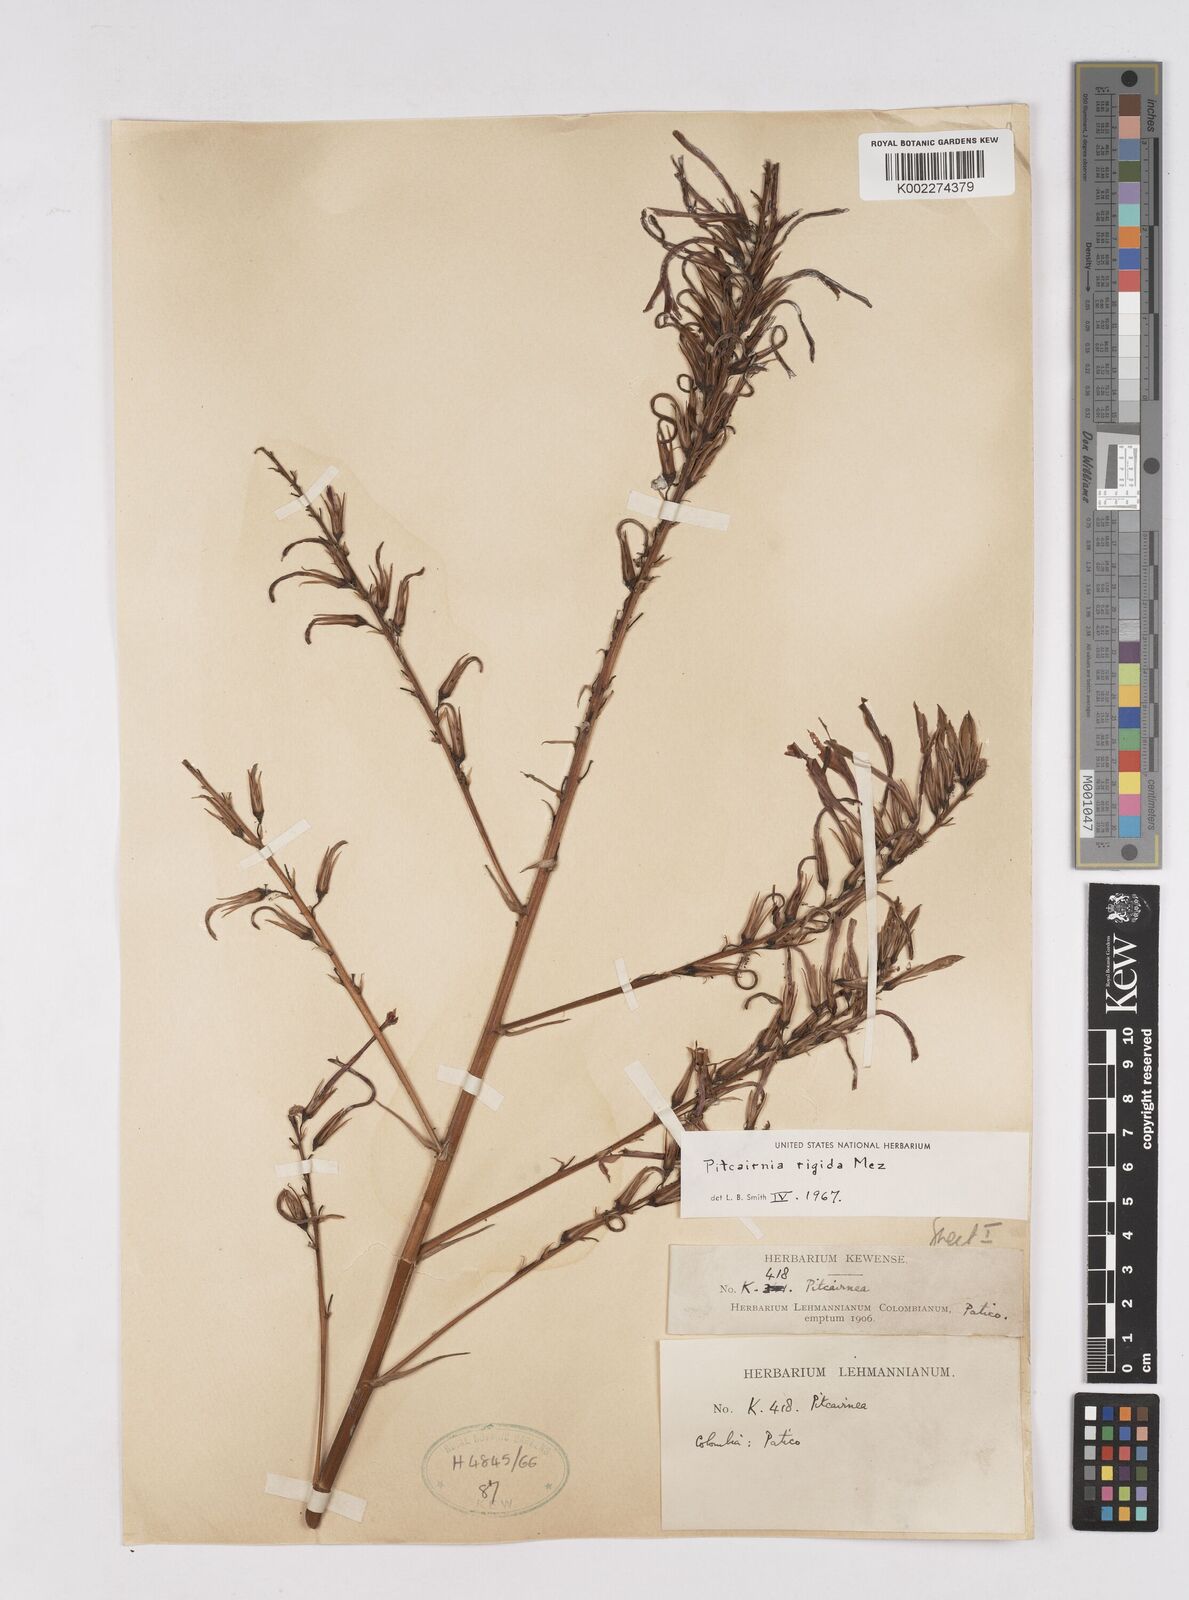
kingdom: Plantae
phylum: Tracheophyta
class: Liliopsida
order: Poales
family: Bromeliaceae
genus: Pitcairnia
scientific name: Pitcairnia rigida
